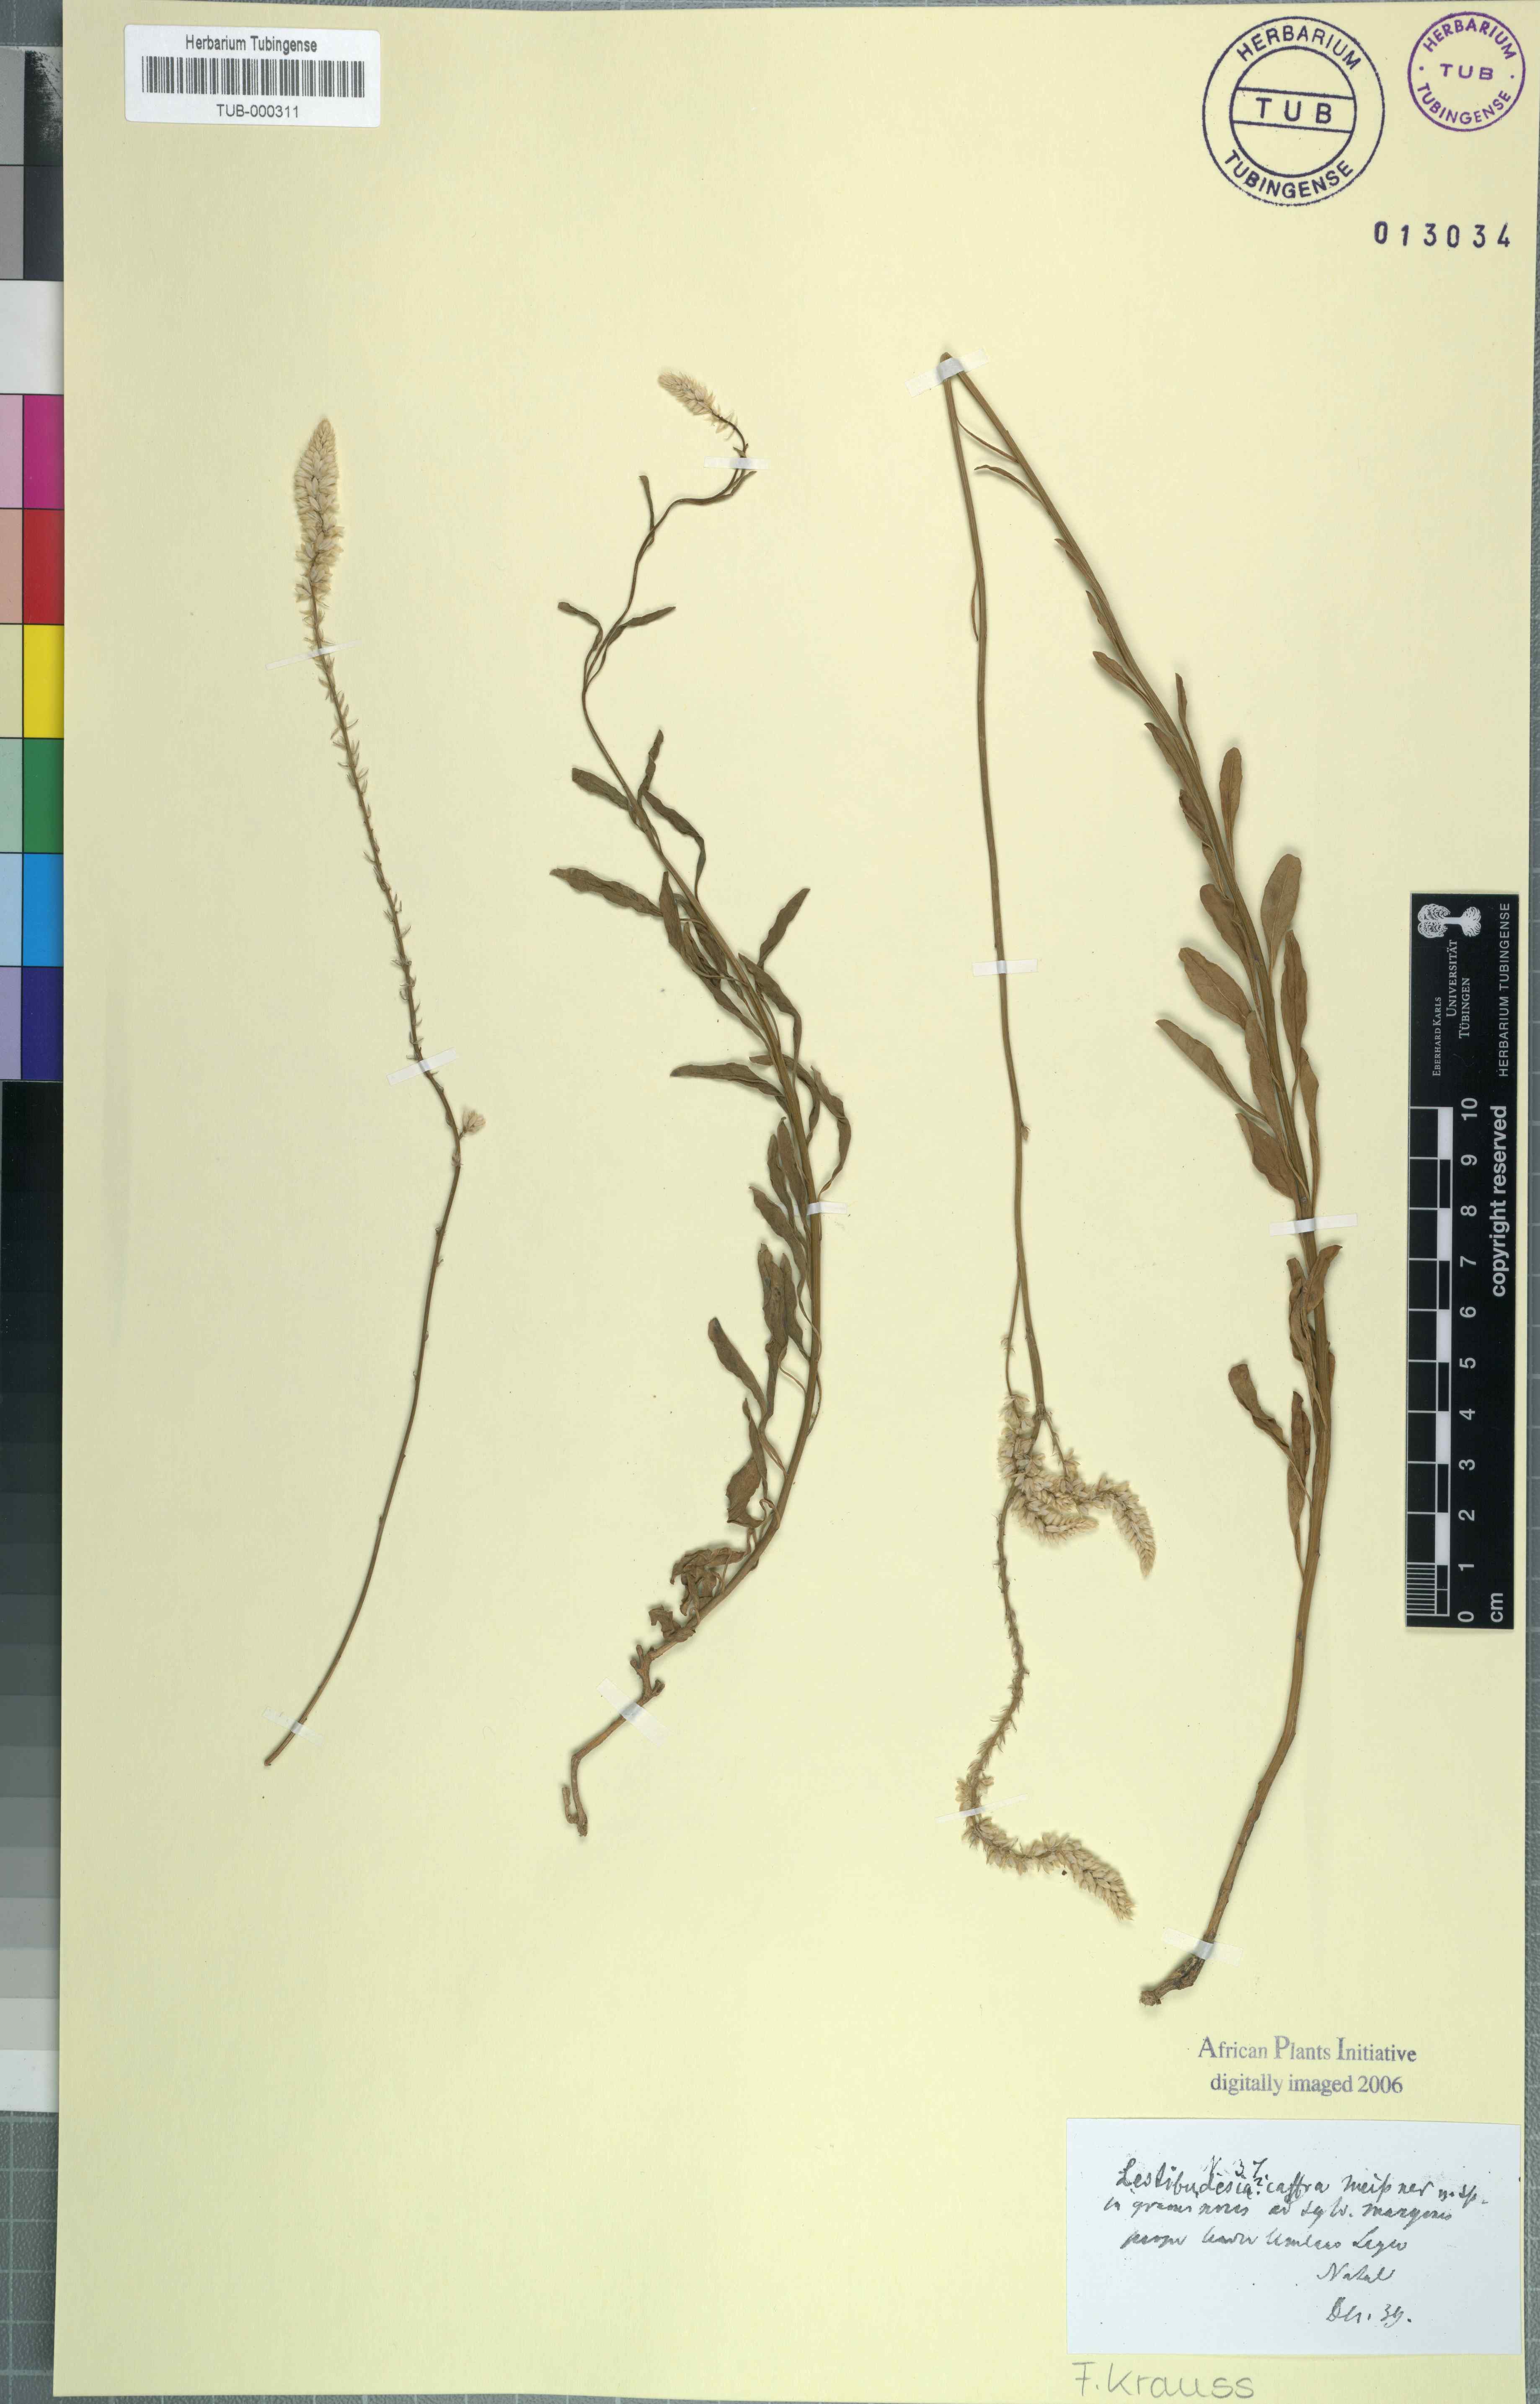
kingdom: Plantae
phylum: Tracheophyta
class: Magnoliopsida
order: Caryophyllales
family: Amaranthaceae
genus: Hermbstaedtia
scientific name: Hermbstaedtia caffra
